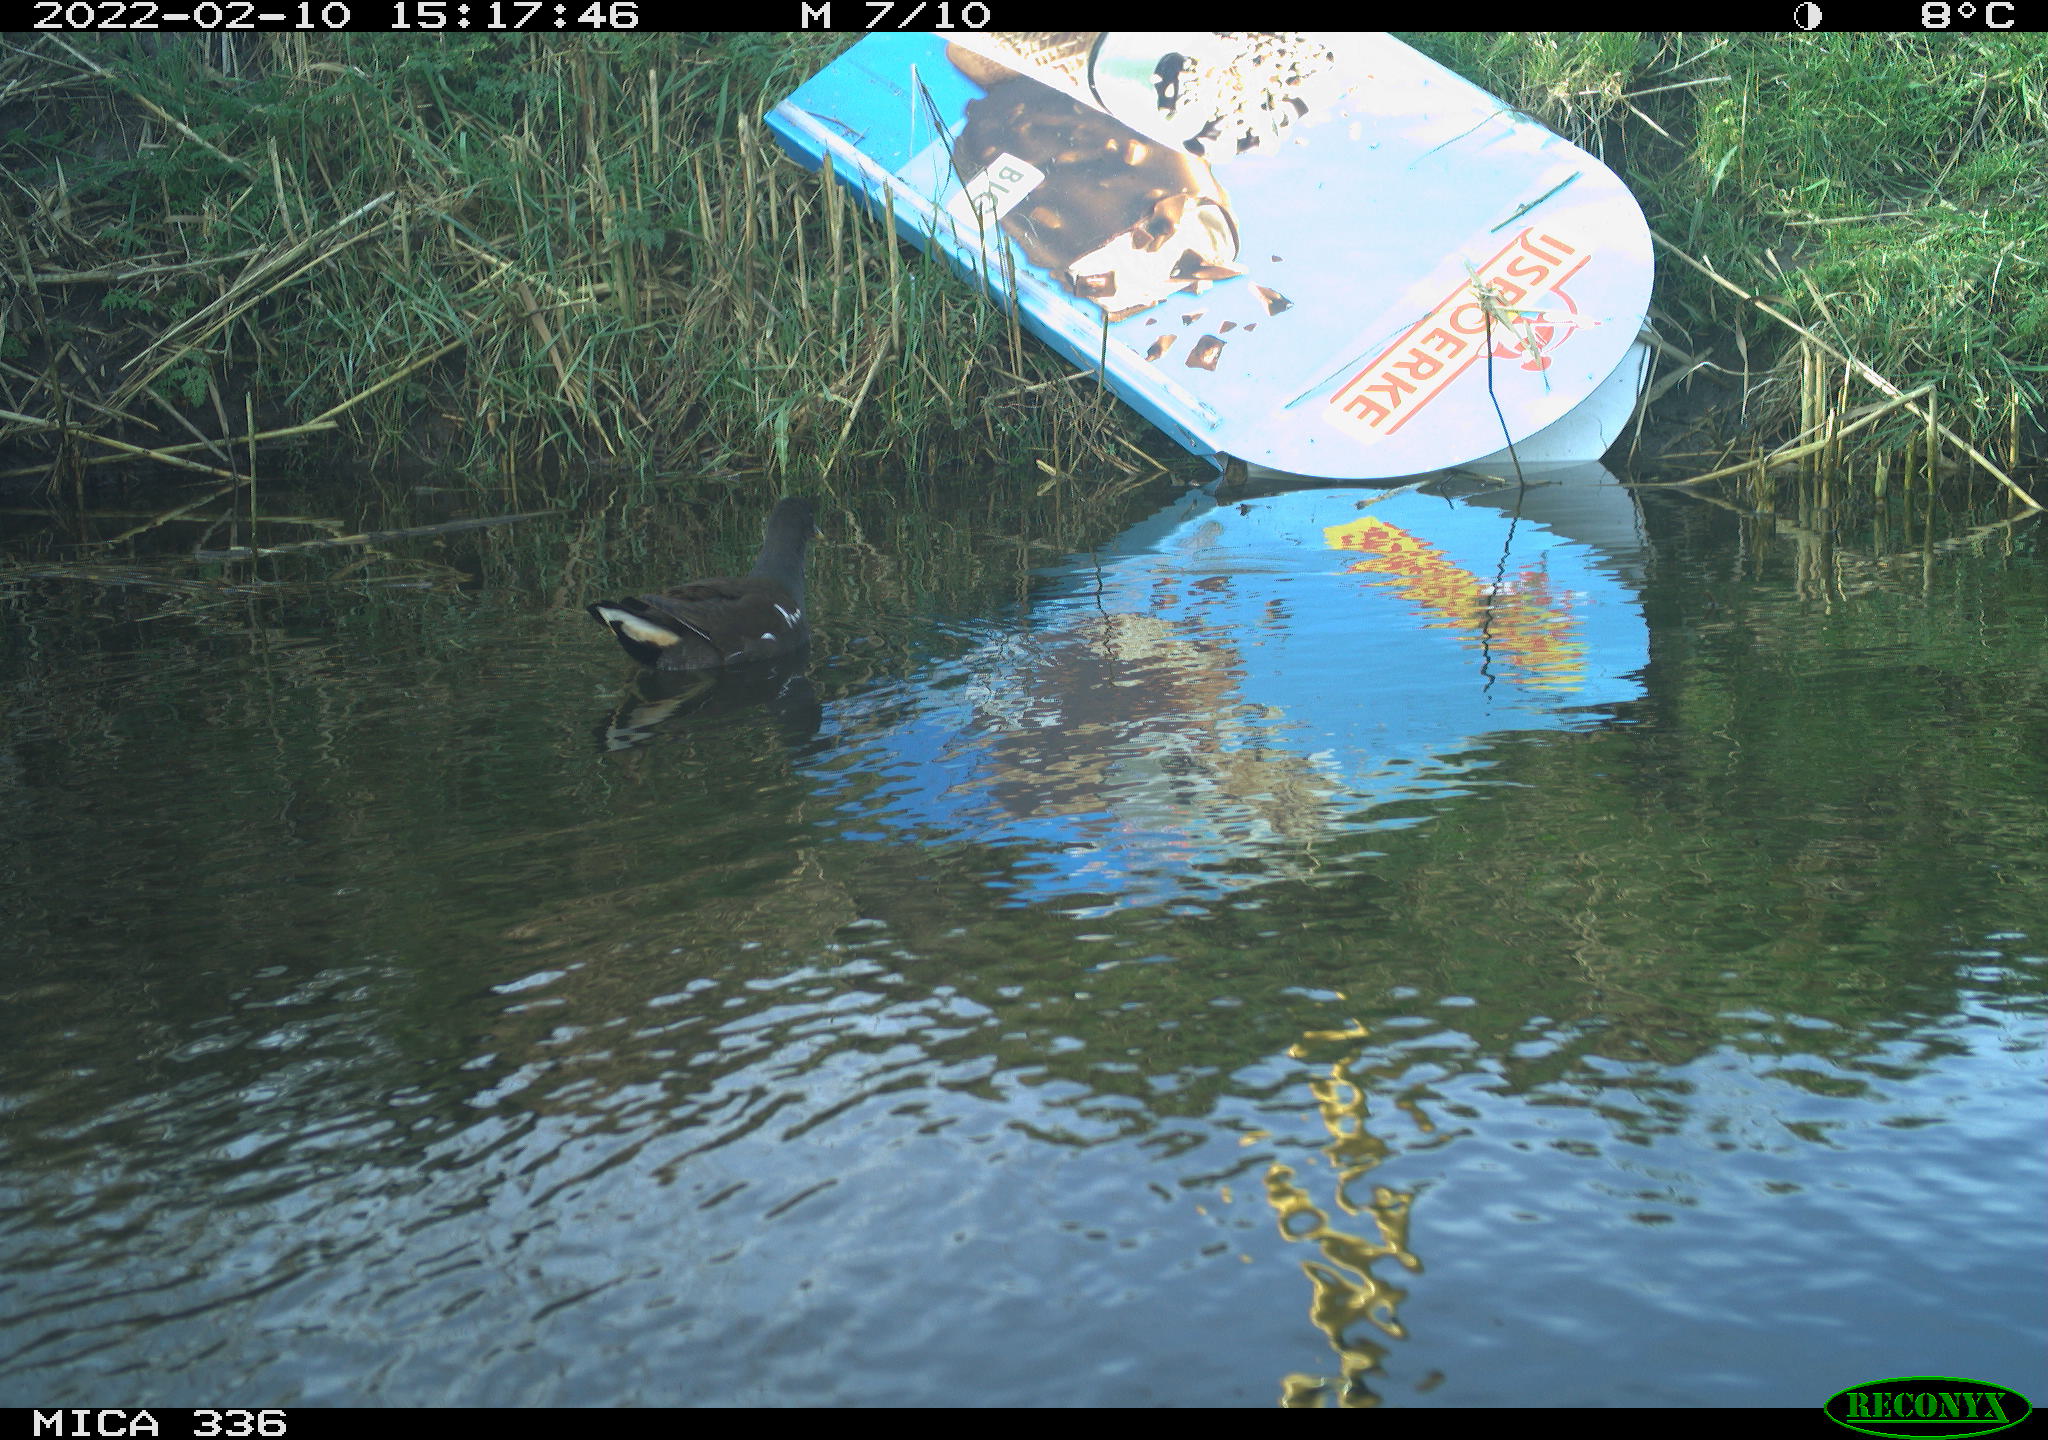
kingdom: Animalia
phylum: Chordata
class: Aves
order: Gruiformes
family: Rallidae
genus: Gallinula
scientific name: Gallinula chloropus
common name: Common moorhen
